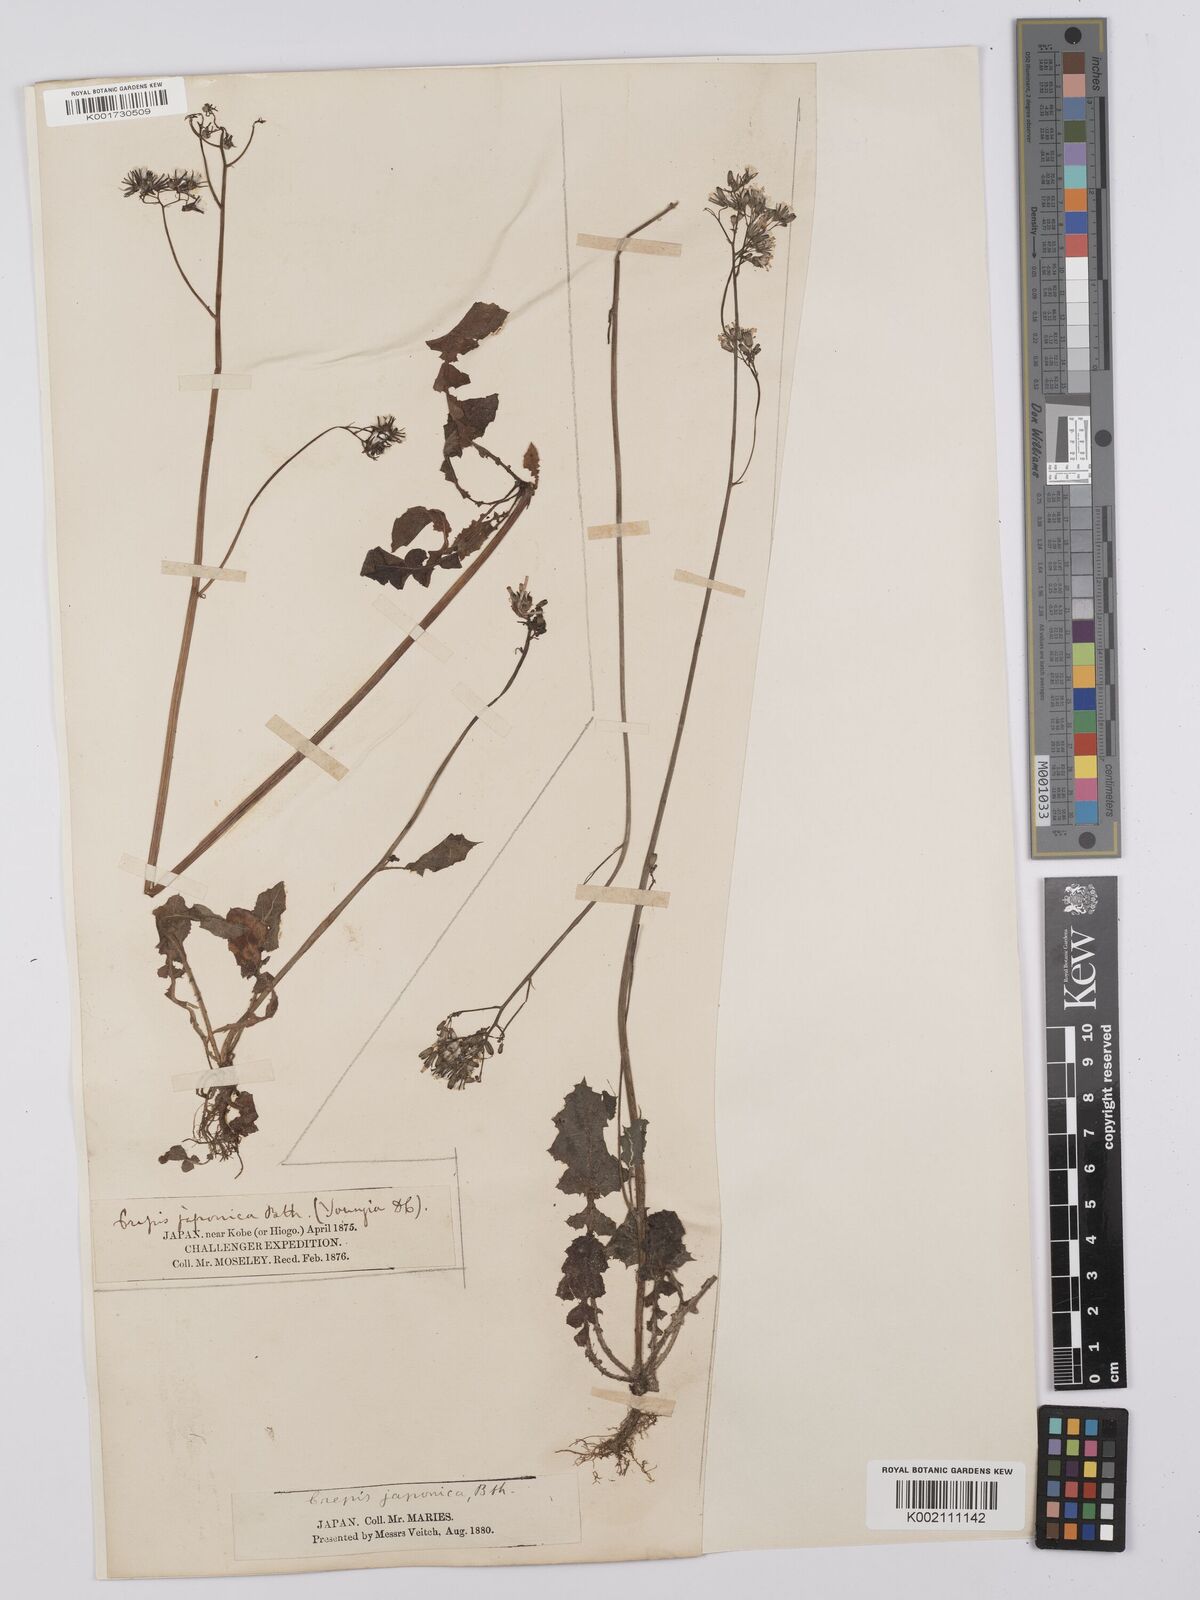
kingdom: Plantae
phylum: Tracheophyta
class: Magnoliopsida
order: Asterales
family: Asteraceae
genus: Youngia
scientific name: Youngia japonica
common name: Oriental false hawksbeard
